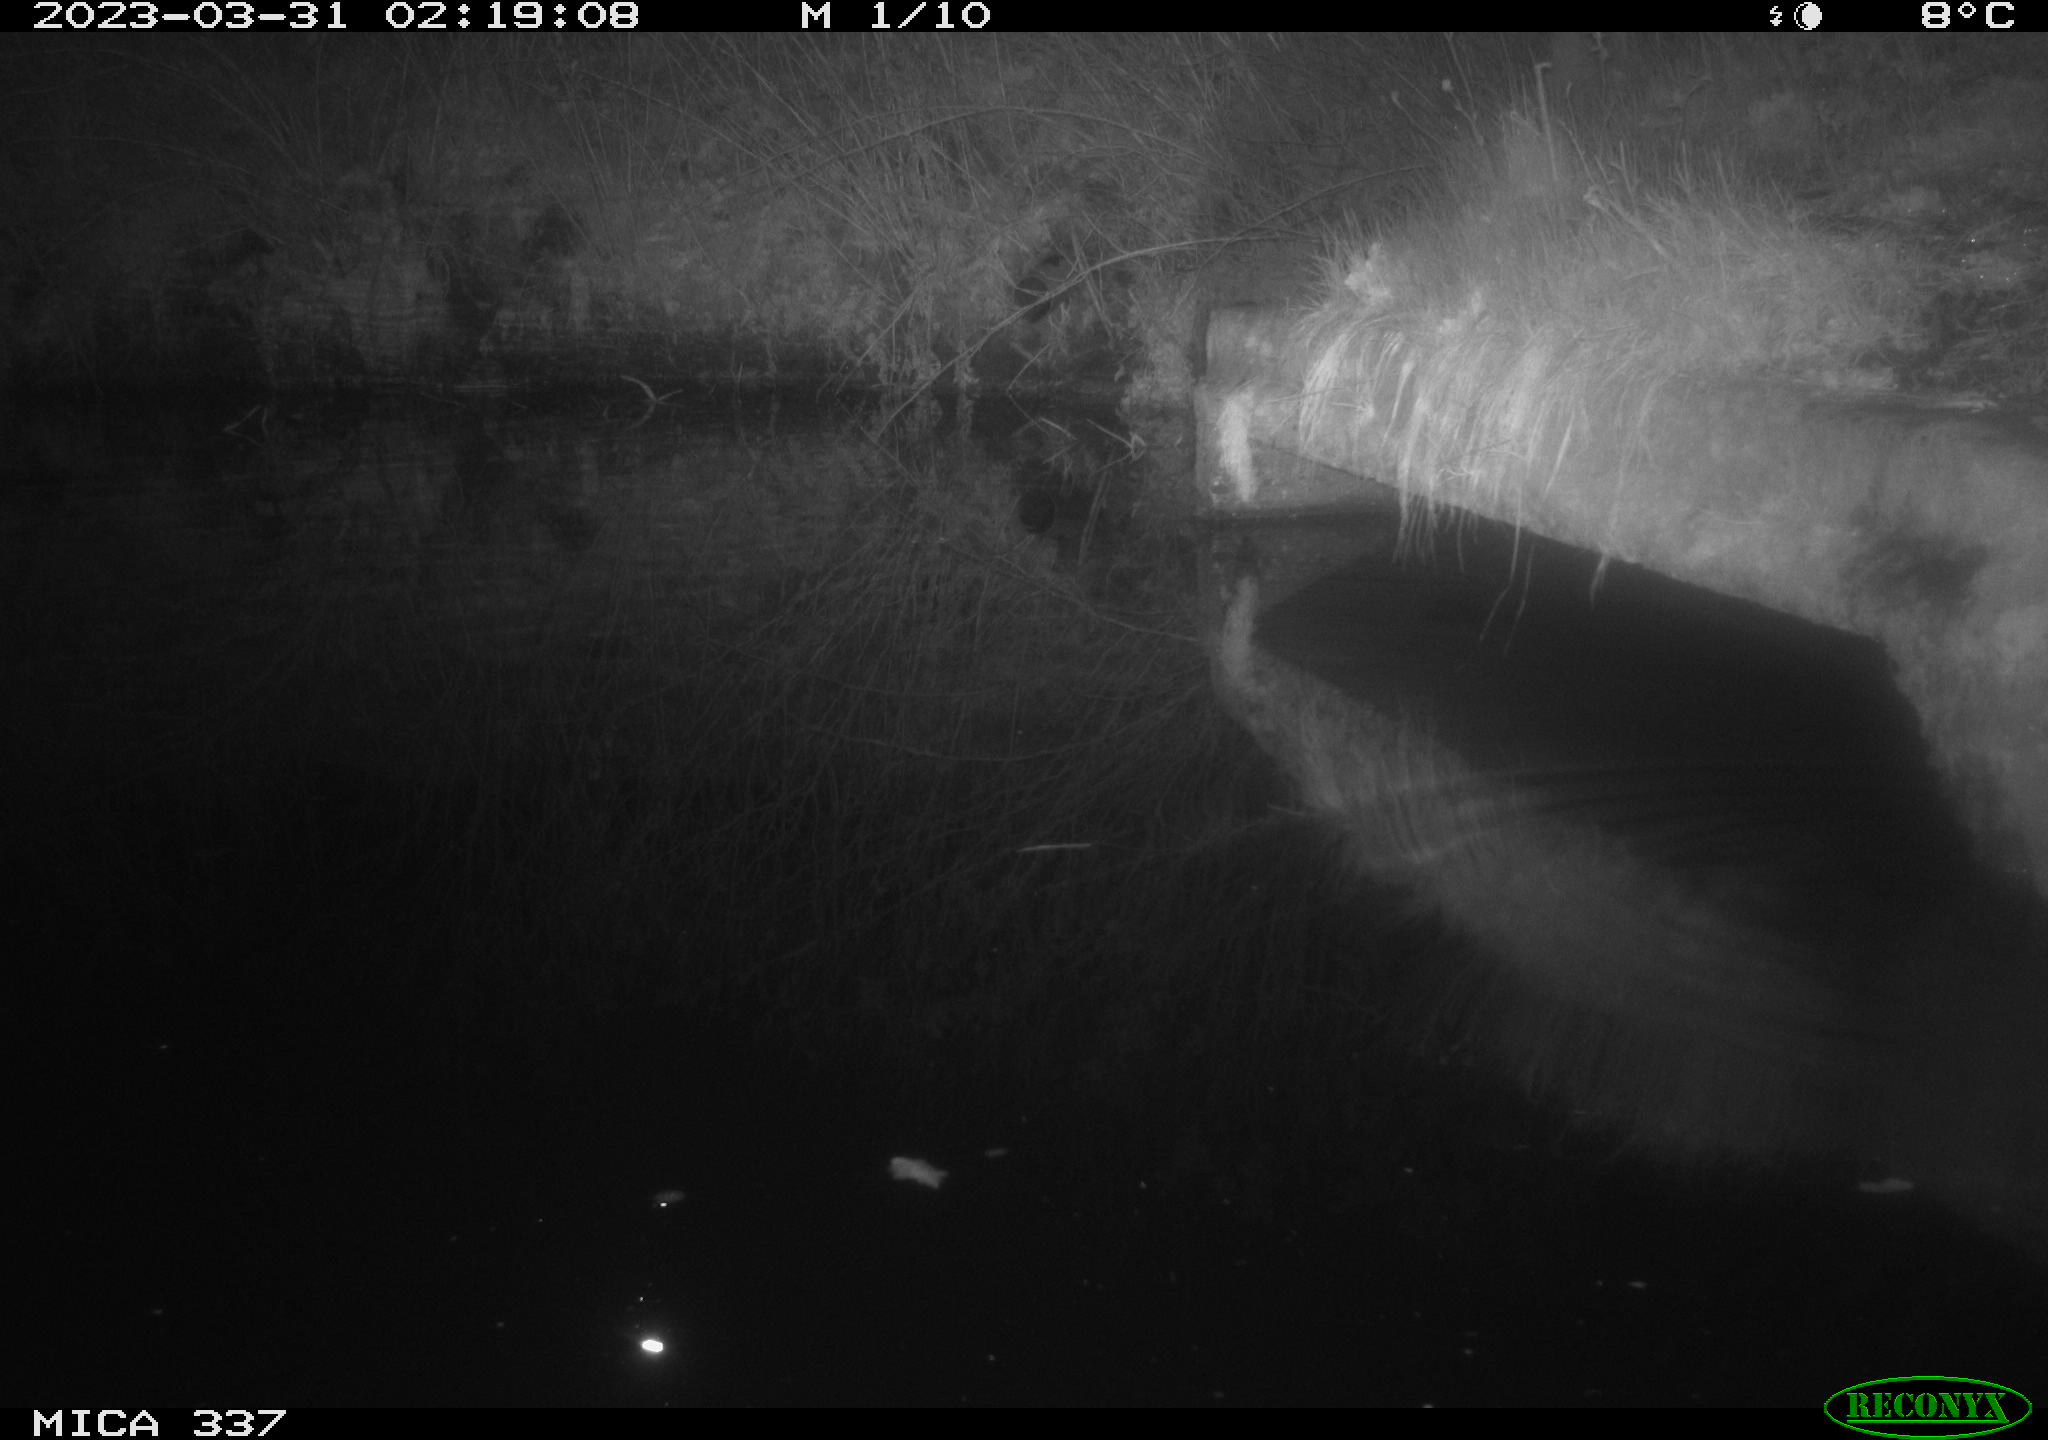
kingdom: Animalia
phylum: Chordata
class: Mammalia
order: Rodentia
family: Muridae
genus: Rattus
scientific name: Rattus norvegicus
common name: Brown rat
